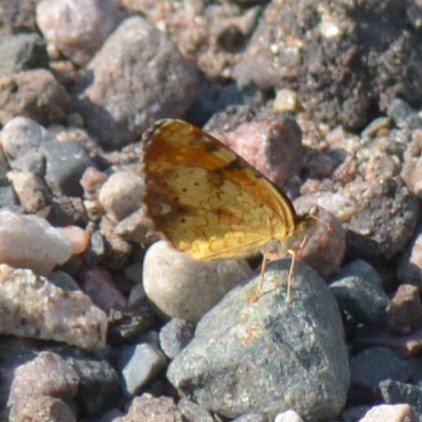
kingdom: Animalia
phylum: Arthropoda
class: Insecta
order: Lepidoptera
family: Nymphalidae
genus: Phyciodes
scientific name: Phyciodes tharos
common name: Northern Crescent
